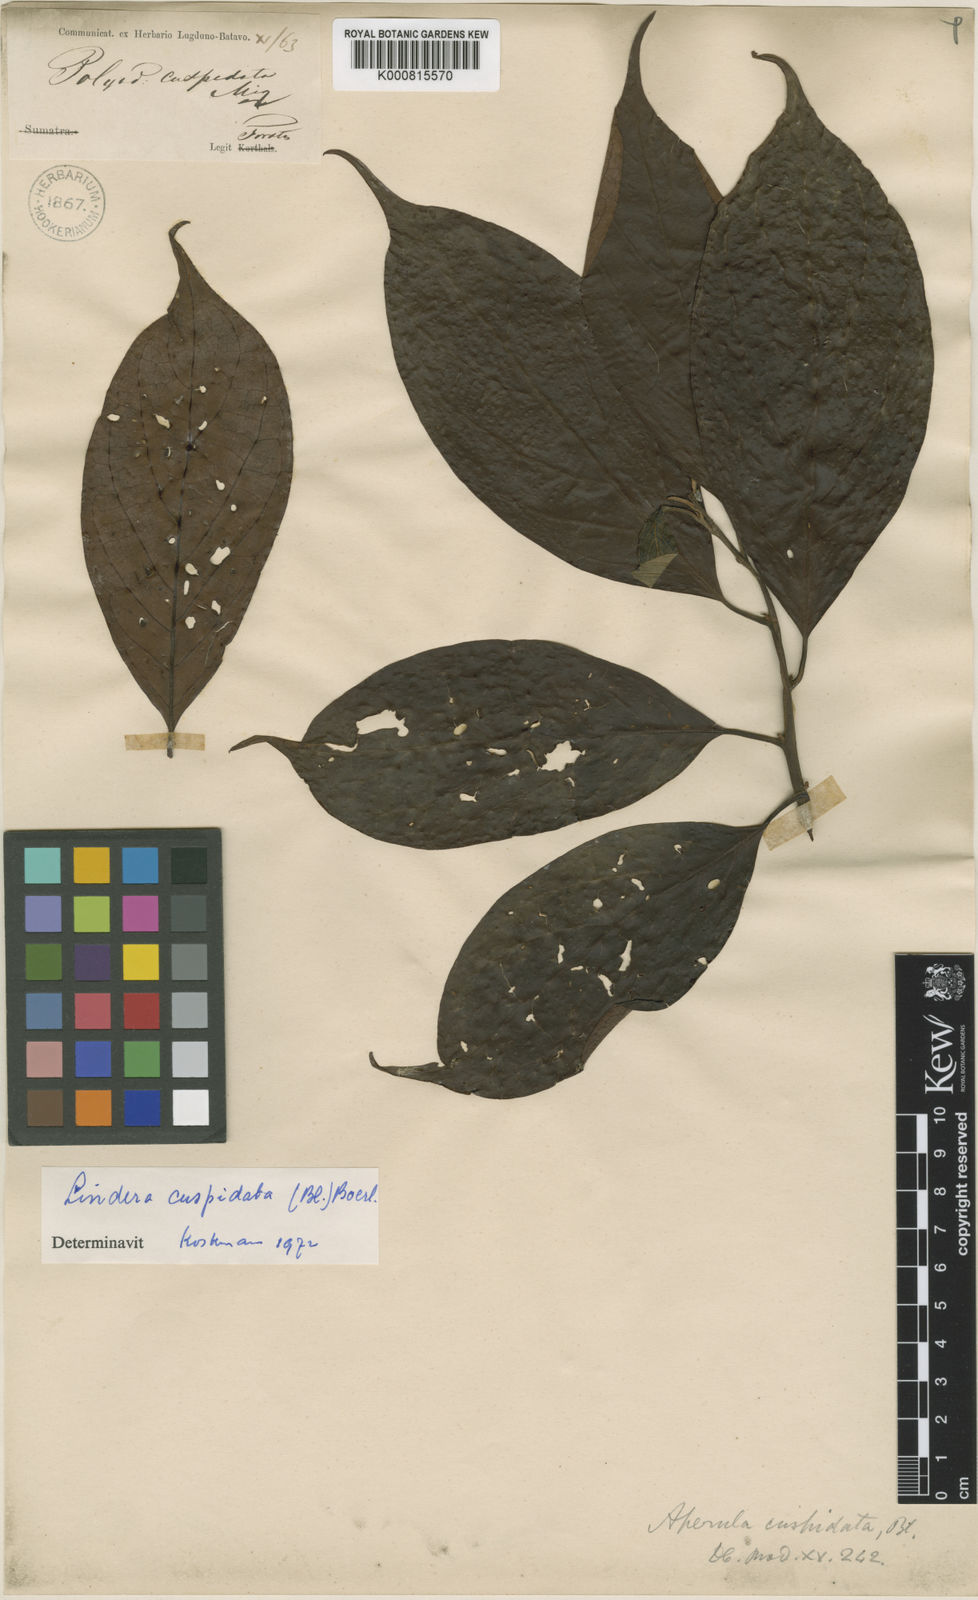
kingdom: Plantae
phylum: Tracheophyta
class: Magnoliopsida
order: Laurales
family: Lauraceae
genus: Lindera
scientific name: Lindera cuspidata
